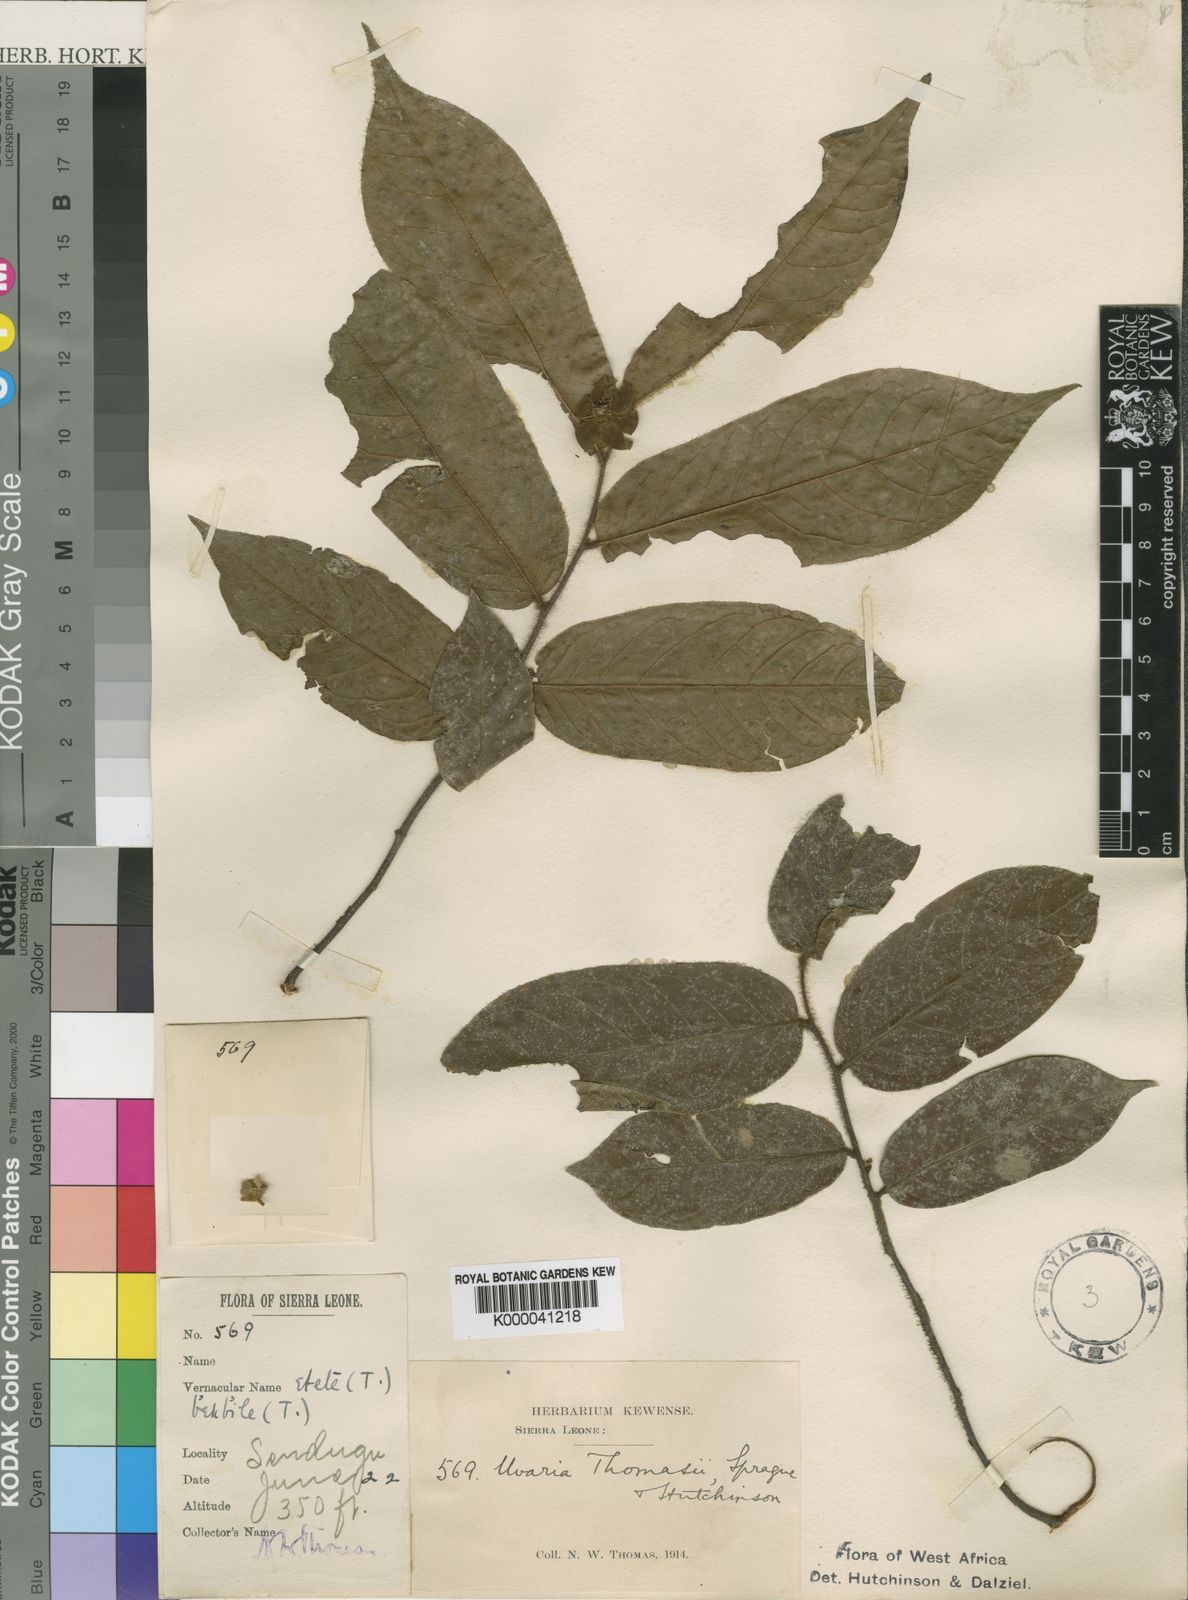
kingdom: Plantae
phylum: Tracheophyta
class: Magnoliopsida
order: Magnoliales
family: Annonaceae
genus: Uvaria
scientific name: Uvaria thomasii
